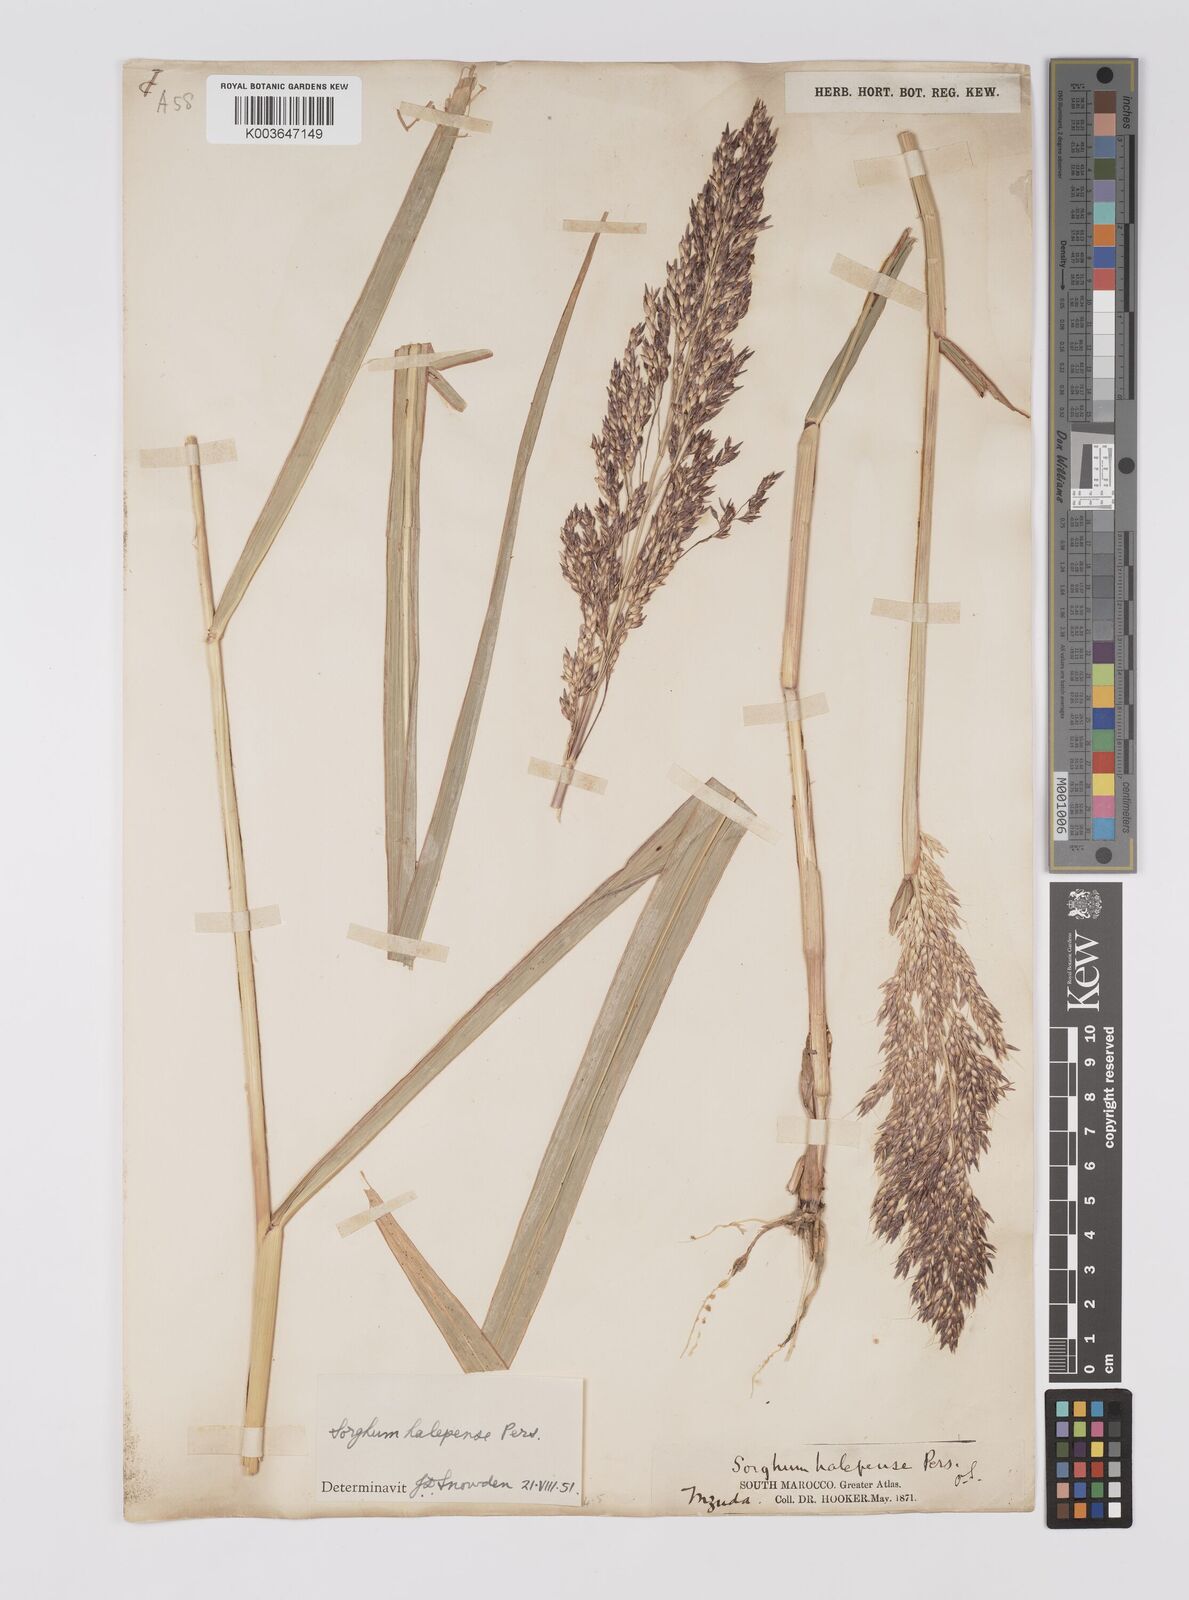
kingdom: Plantae
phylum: Tracheophyta
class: Liliopsida
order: Poales
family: Poaceae
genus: Sorghum
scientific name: Sorghum halepense
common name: Johnson-grass
